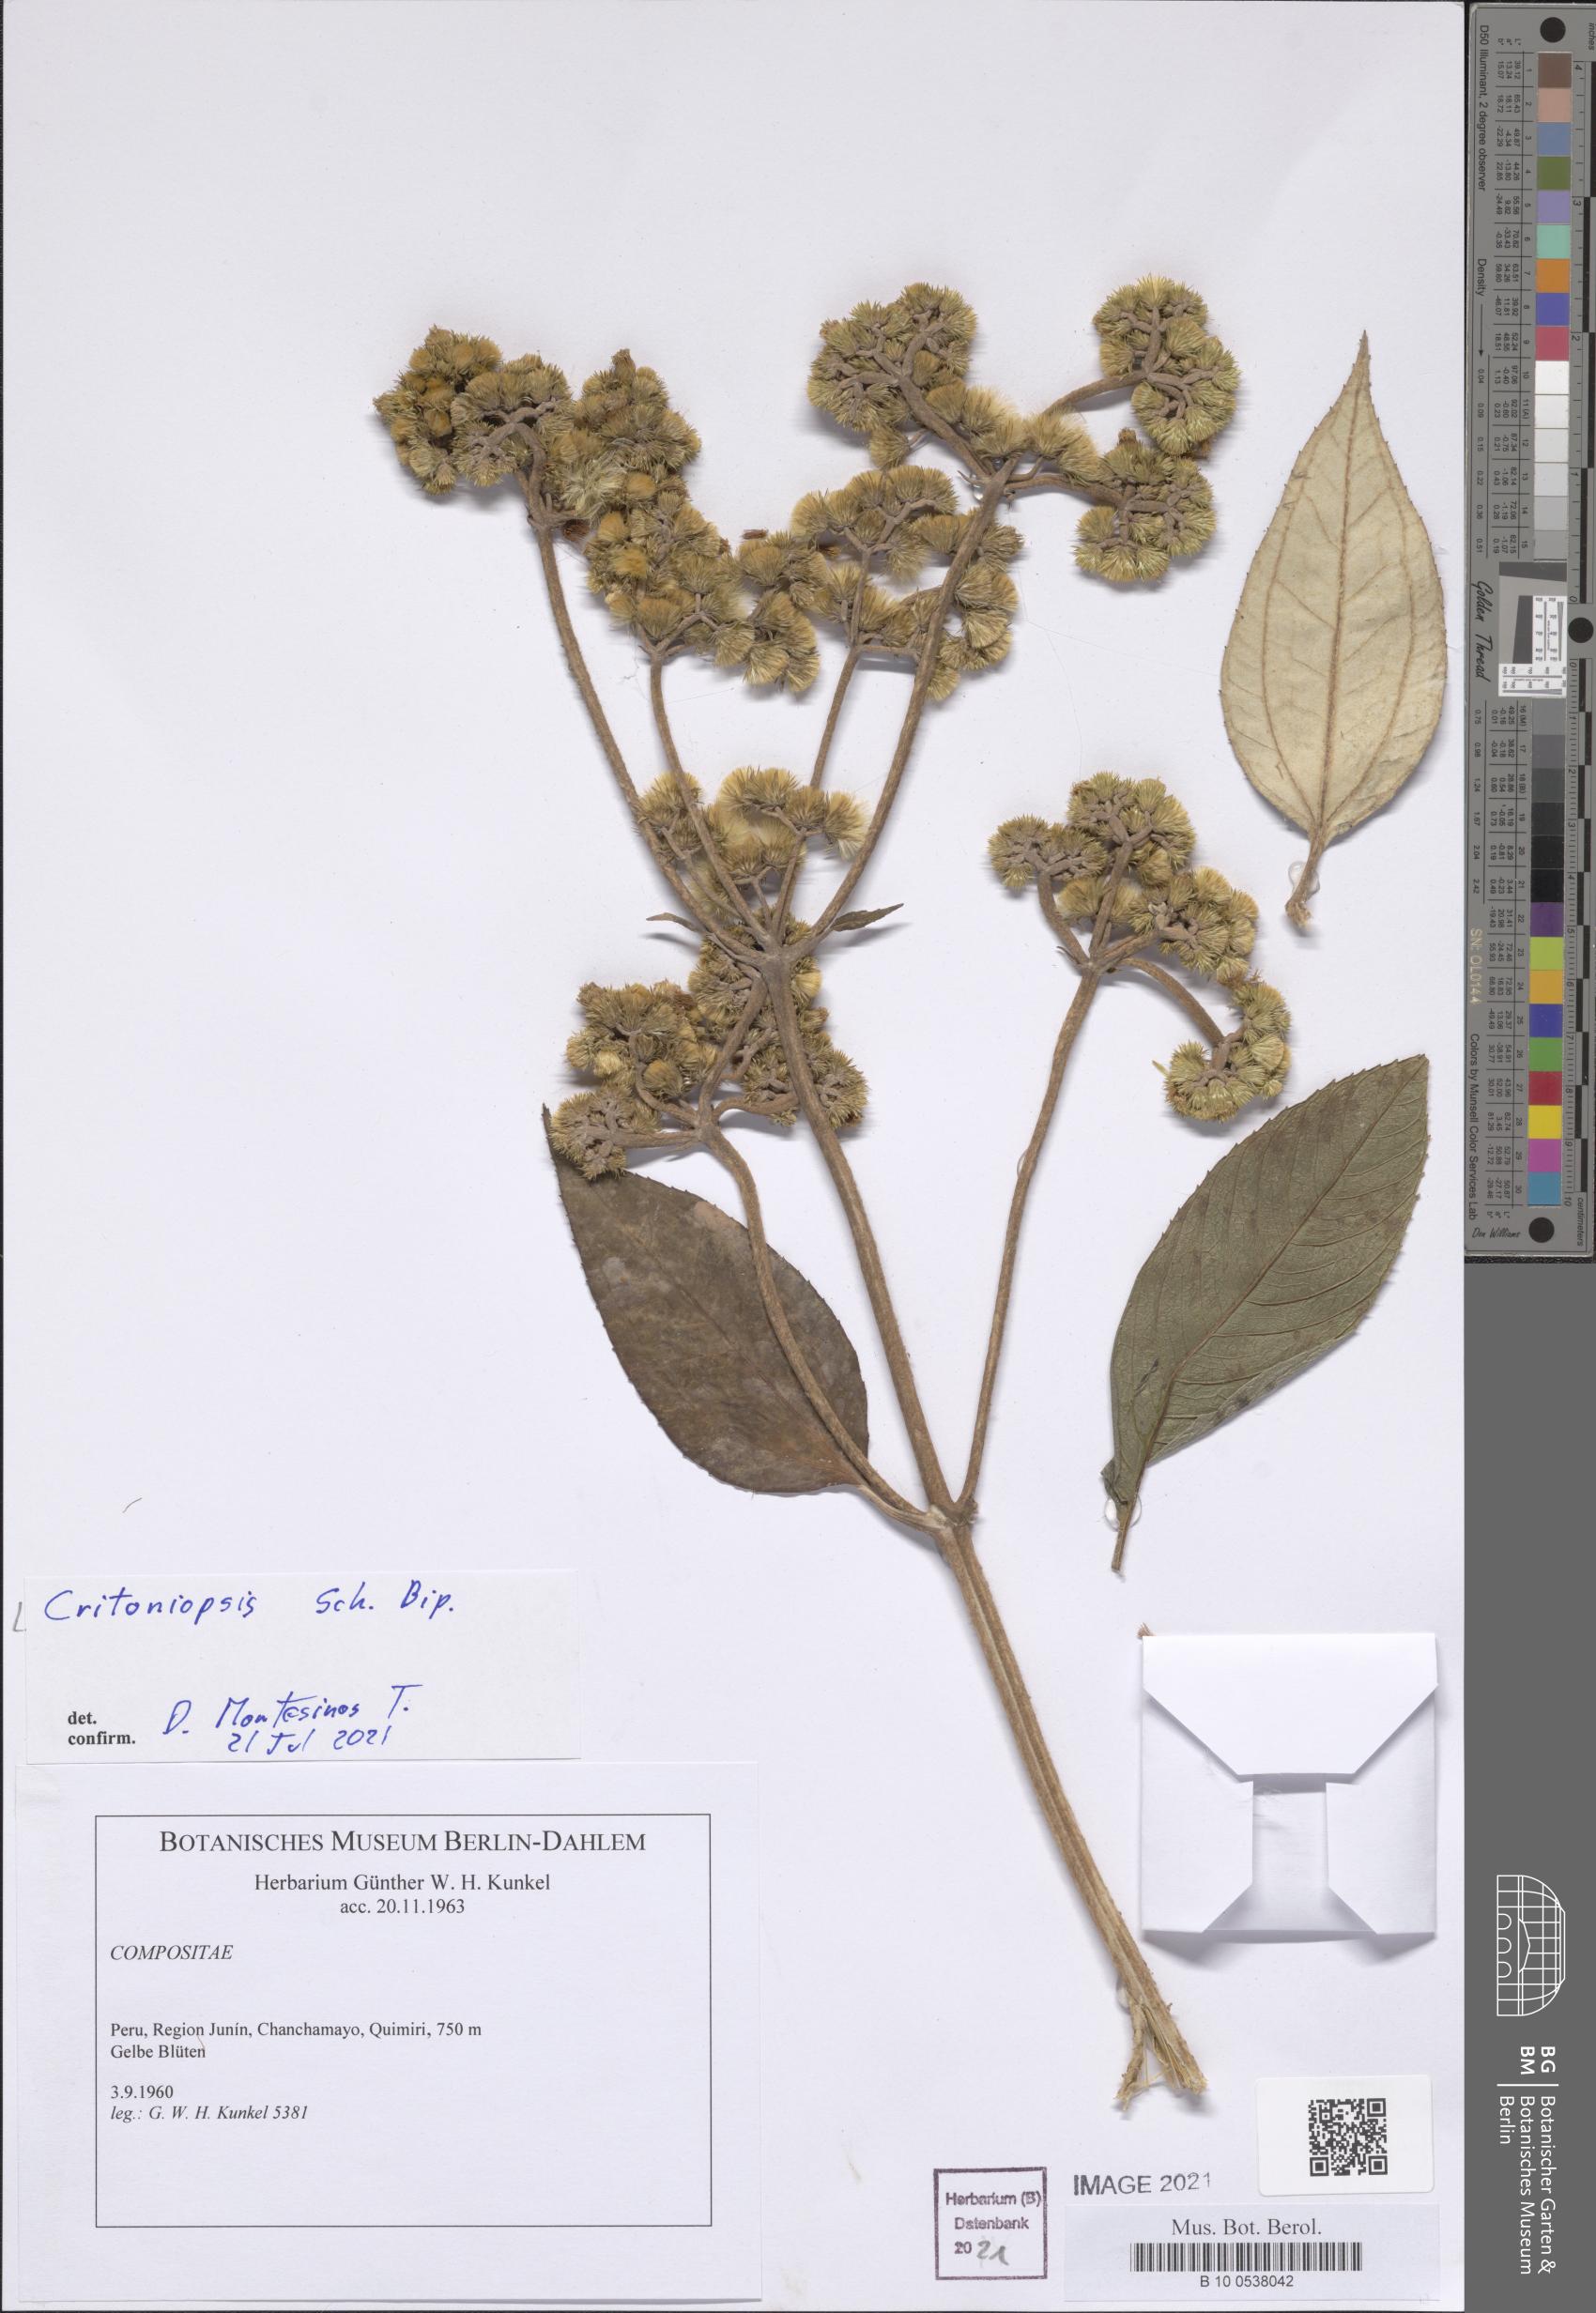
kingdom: Plantae
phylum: Tracheophyta
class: Magnoliopsida
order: Asterales
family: Asteraceae
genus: Critoniopsis
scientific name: Critoniopsis
